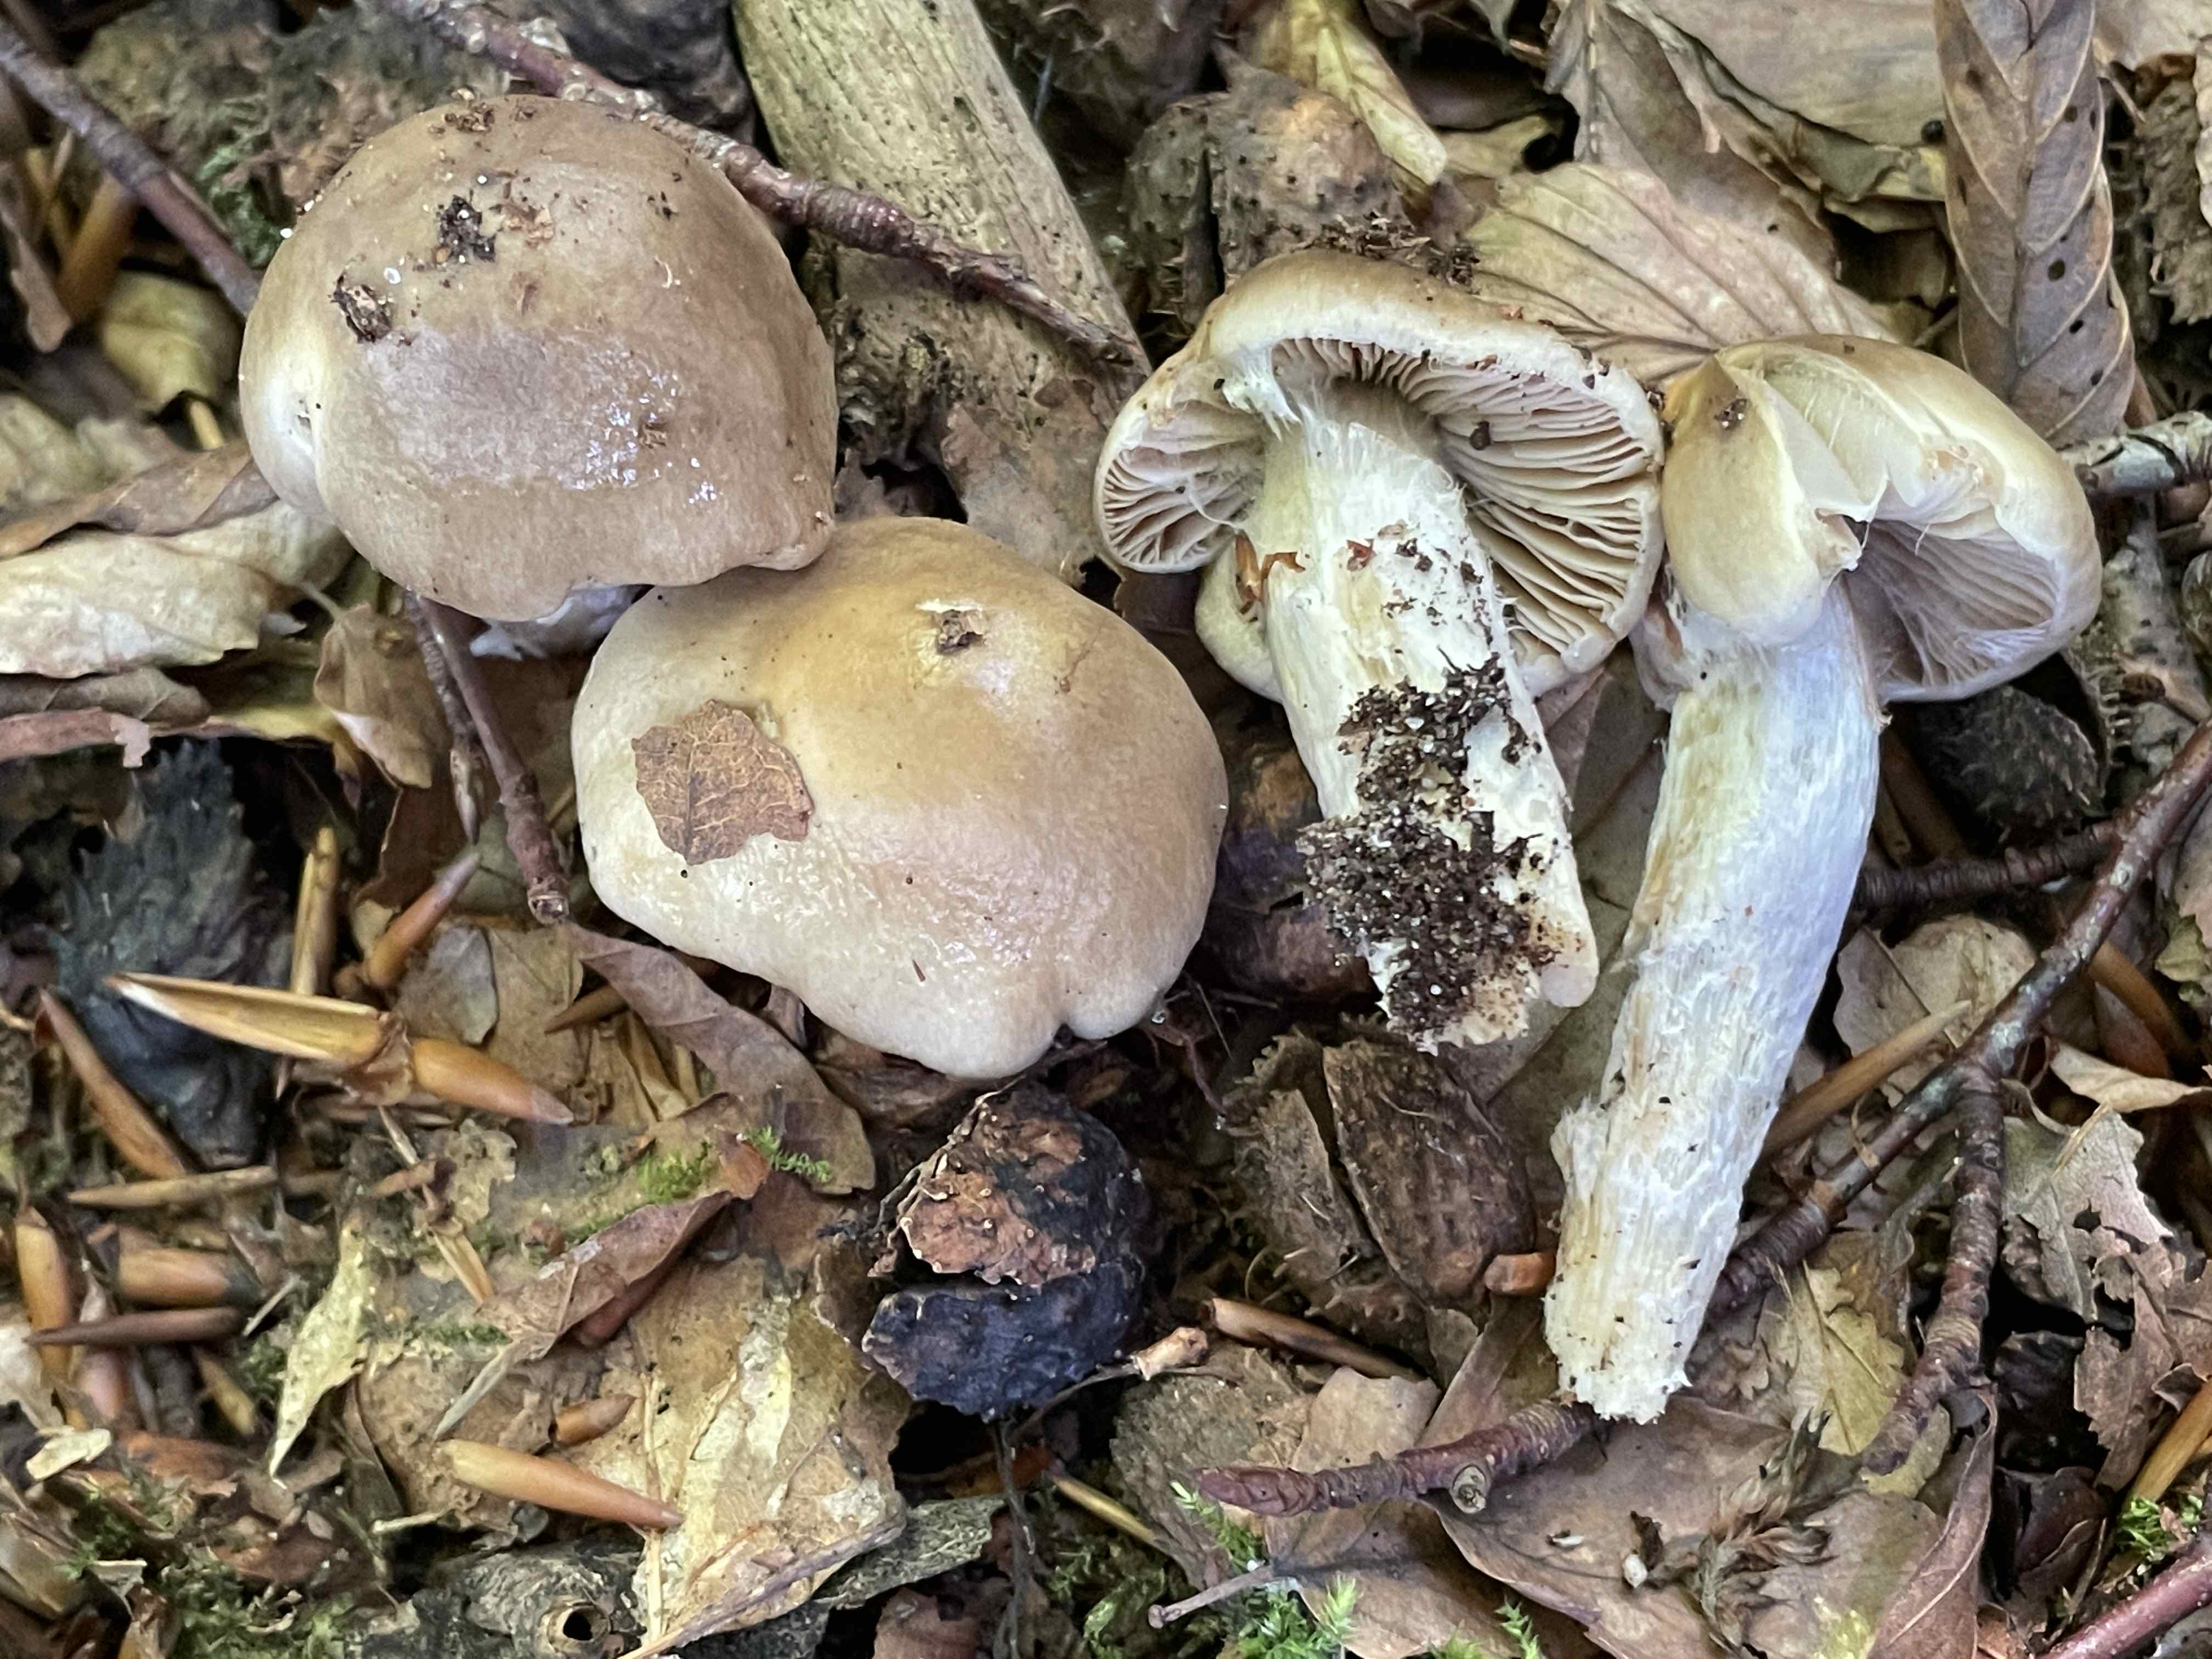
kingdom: Fungi
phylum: Basidiomycota
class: Agaricomycetes
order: Agaricales
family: Cortinariaceae
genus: Cortinarius
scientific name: Cortinarius elatior
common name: høj slørhat
